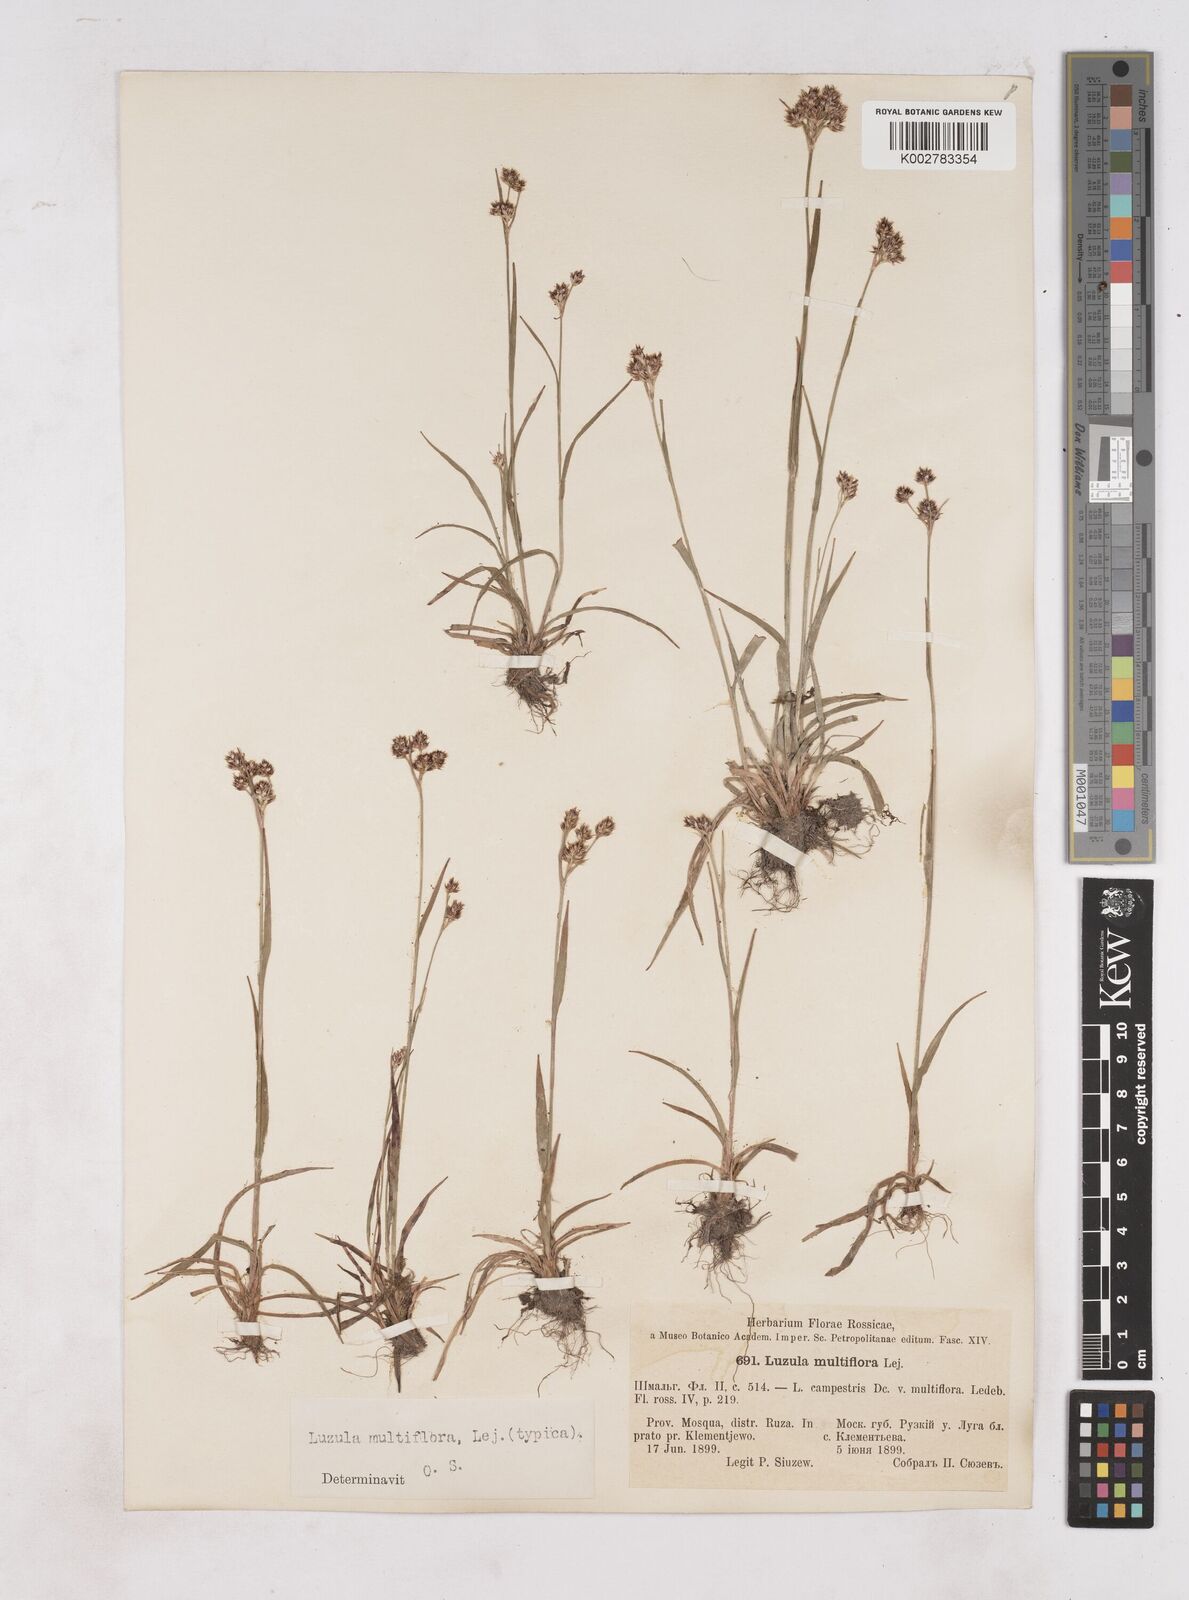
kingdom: Plantae
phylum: Tracheophyta
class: Liliopsida
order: Poales
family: Juncaceae
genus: Luzula
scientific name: Luzula multiflora
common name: Heath wood-rush
